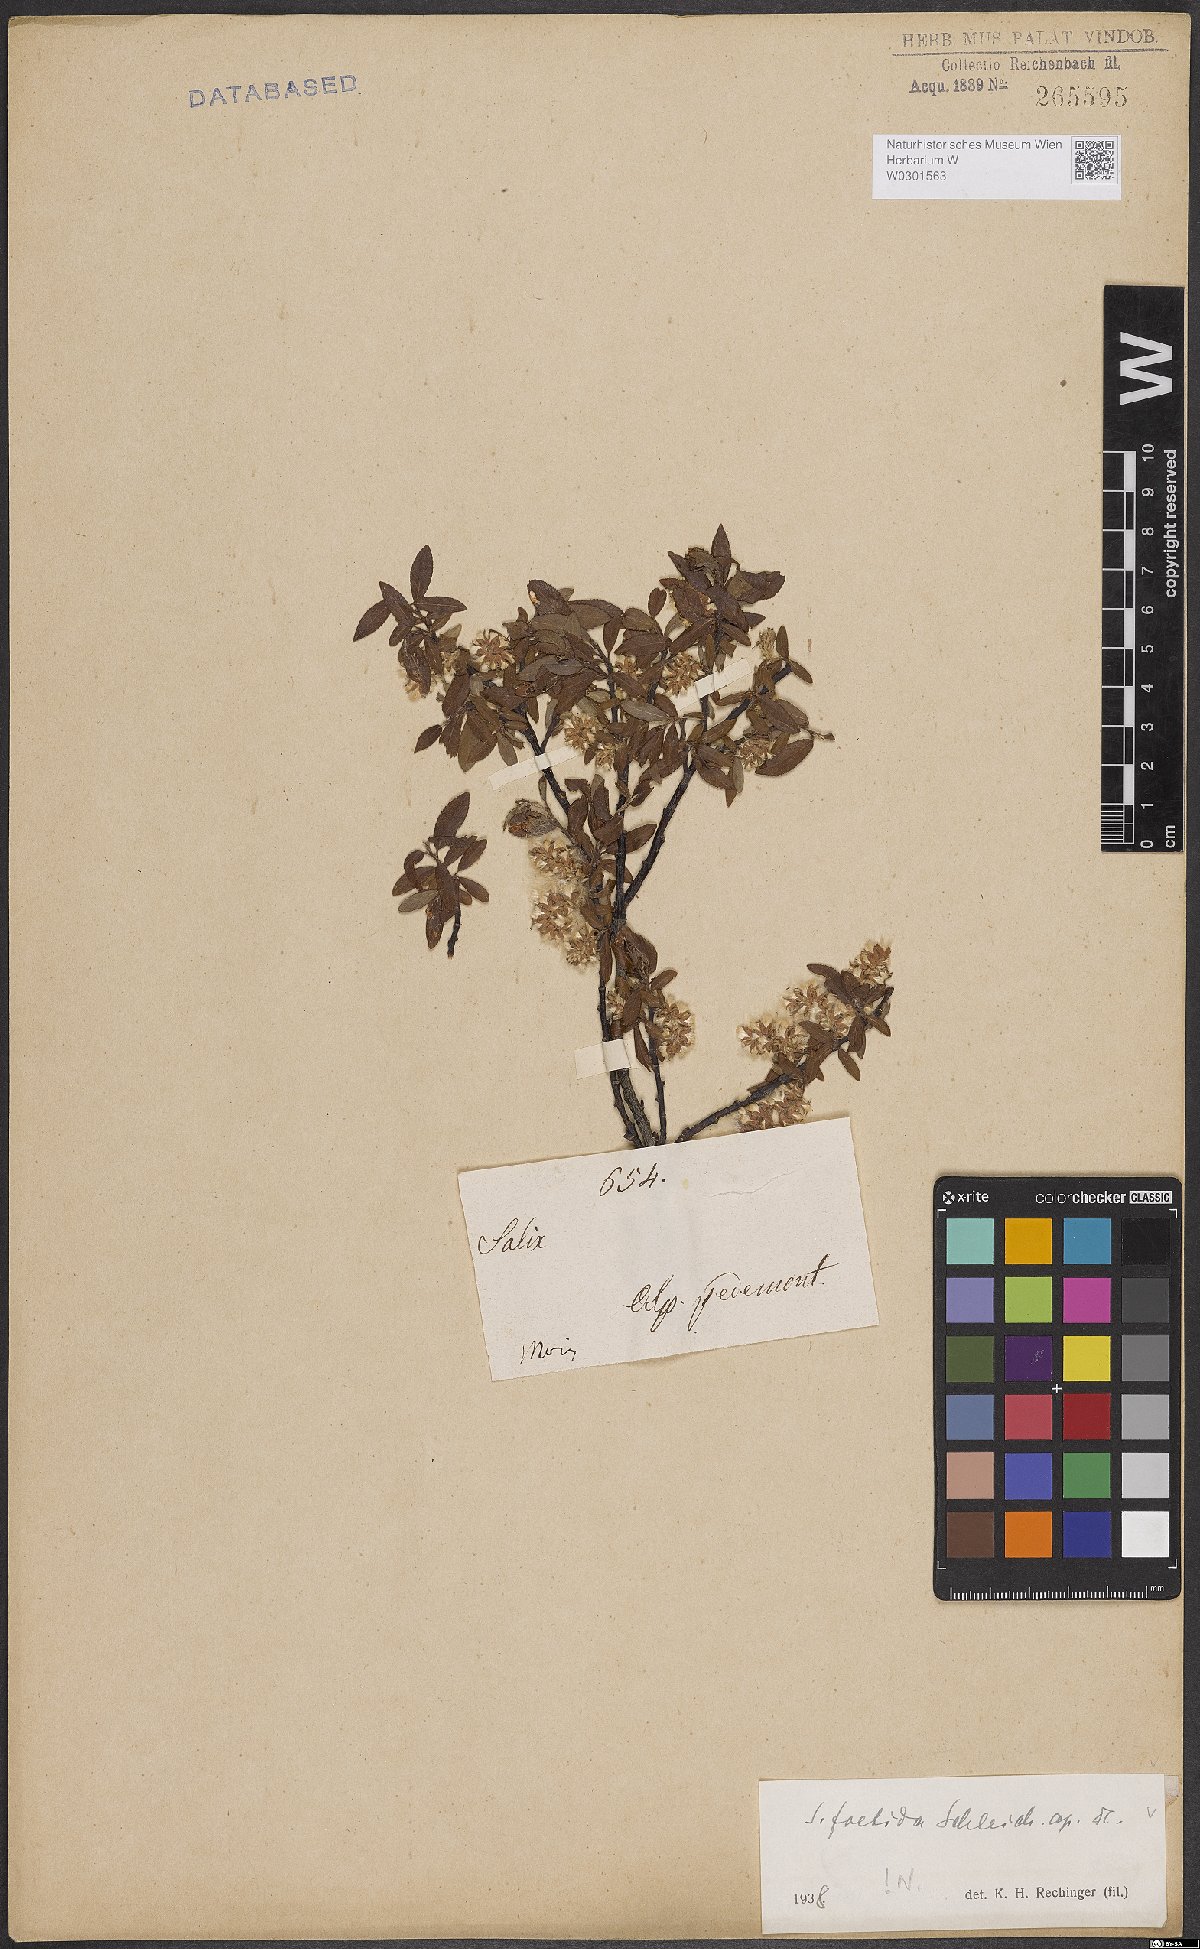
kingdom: Plantae
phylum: Tracheophyta
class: Magnoliopsida
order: Malpighiales
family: Salicaceae
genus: Salix
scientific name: Salix foetida
